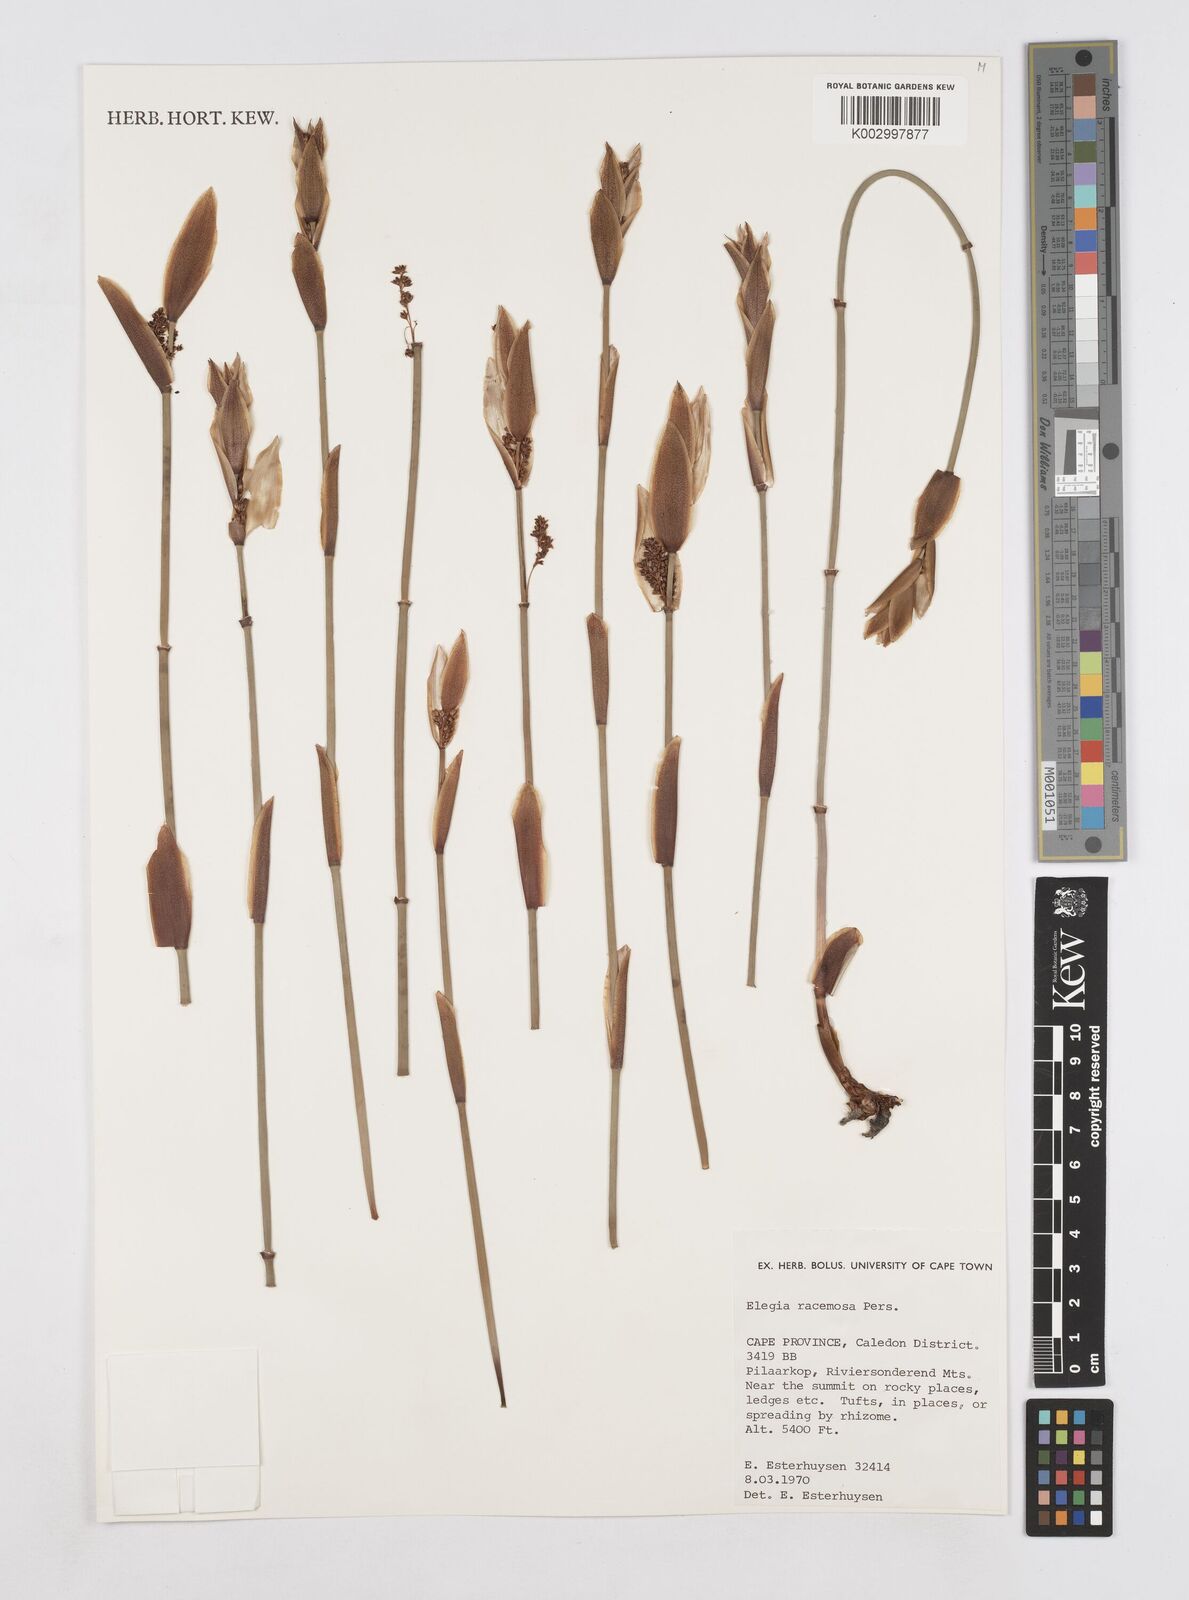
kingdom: Plantae
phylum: Tracheophyta
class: Liliopsida
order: Poales
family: Restionaceae
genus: Elegia
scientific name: Elegia racemosa
